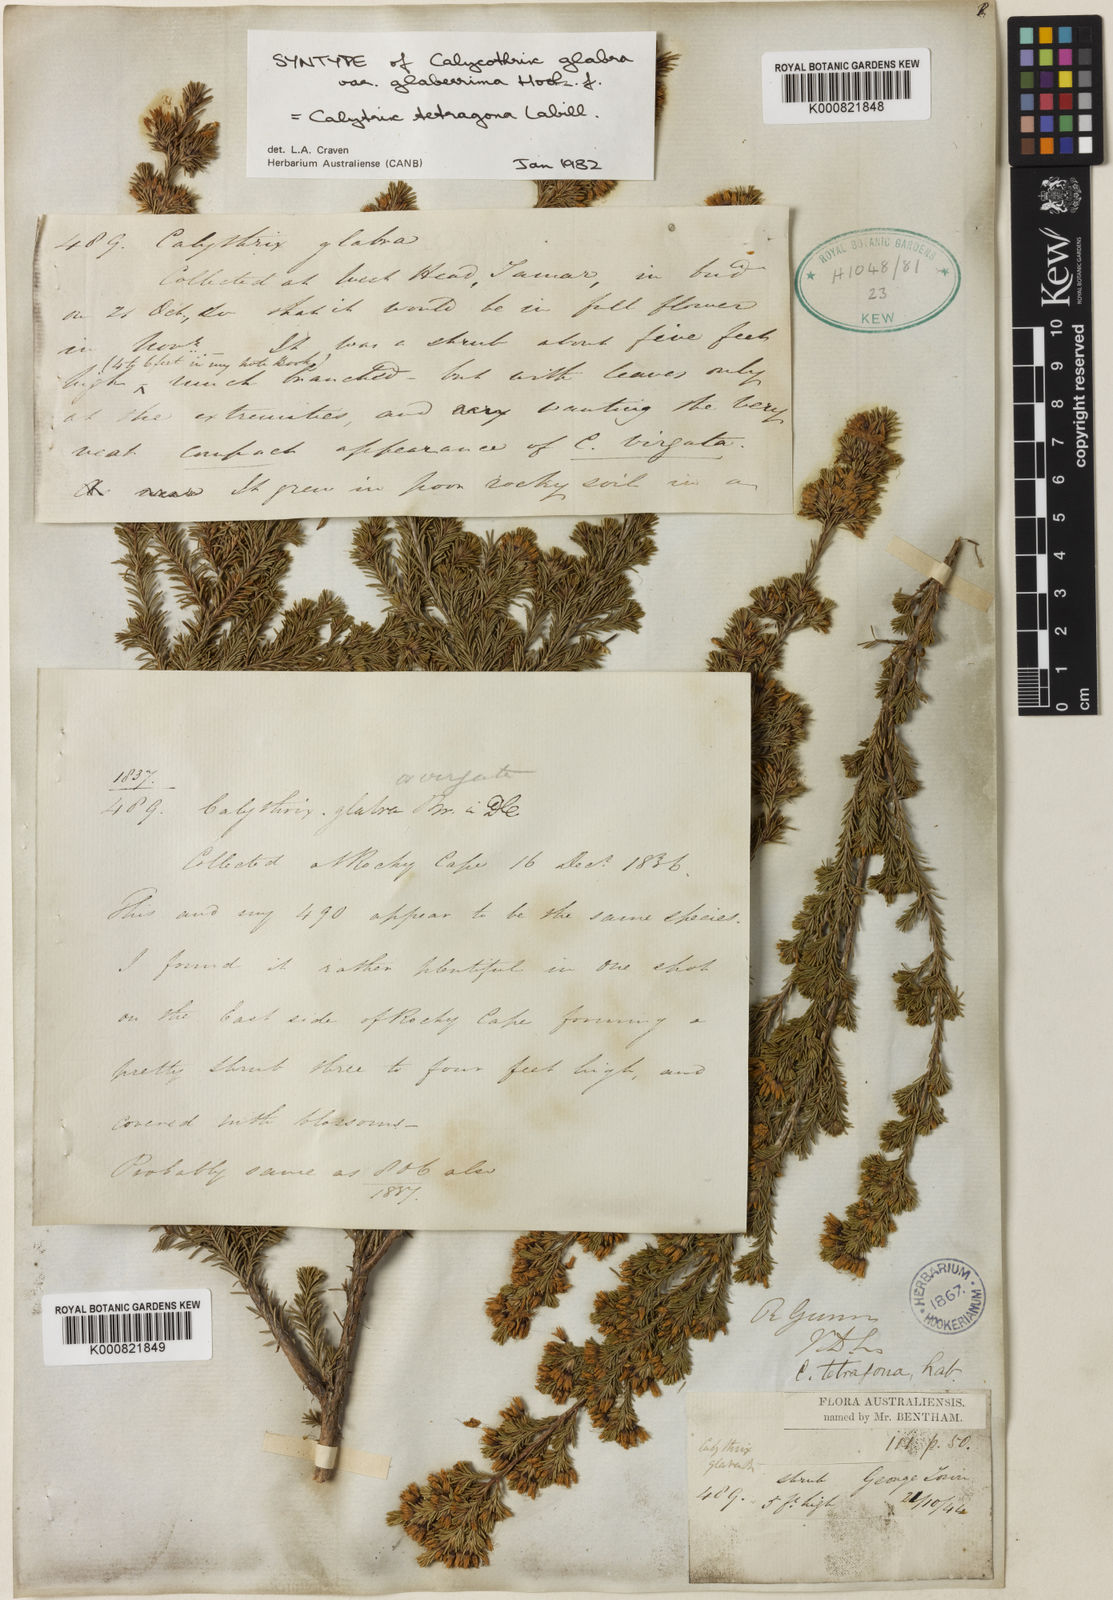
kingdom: Plantae
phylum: Tracheophyta
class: Magnoliopsida
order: Myrtales
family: Myrtaceae
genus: Calytrix
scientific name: Calytrix tetragona
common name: Common fringe myrtle
